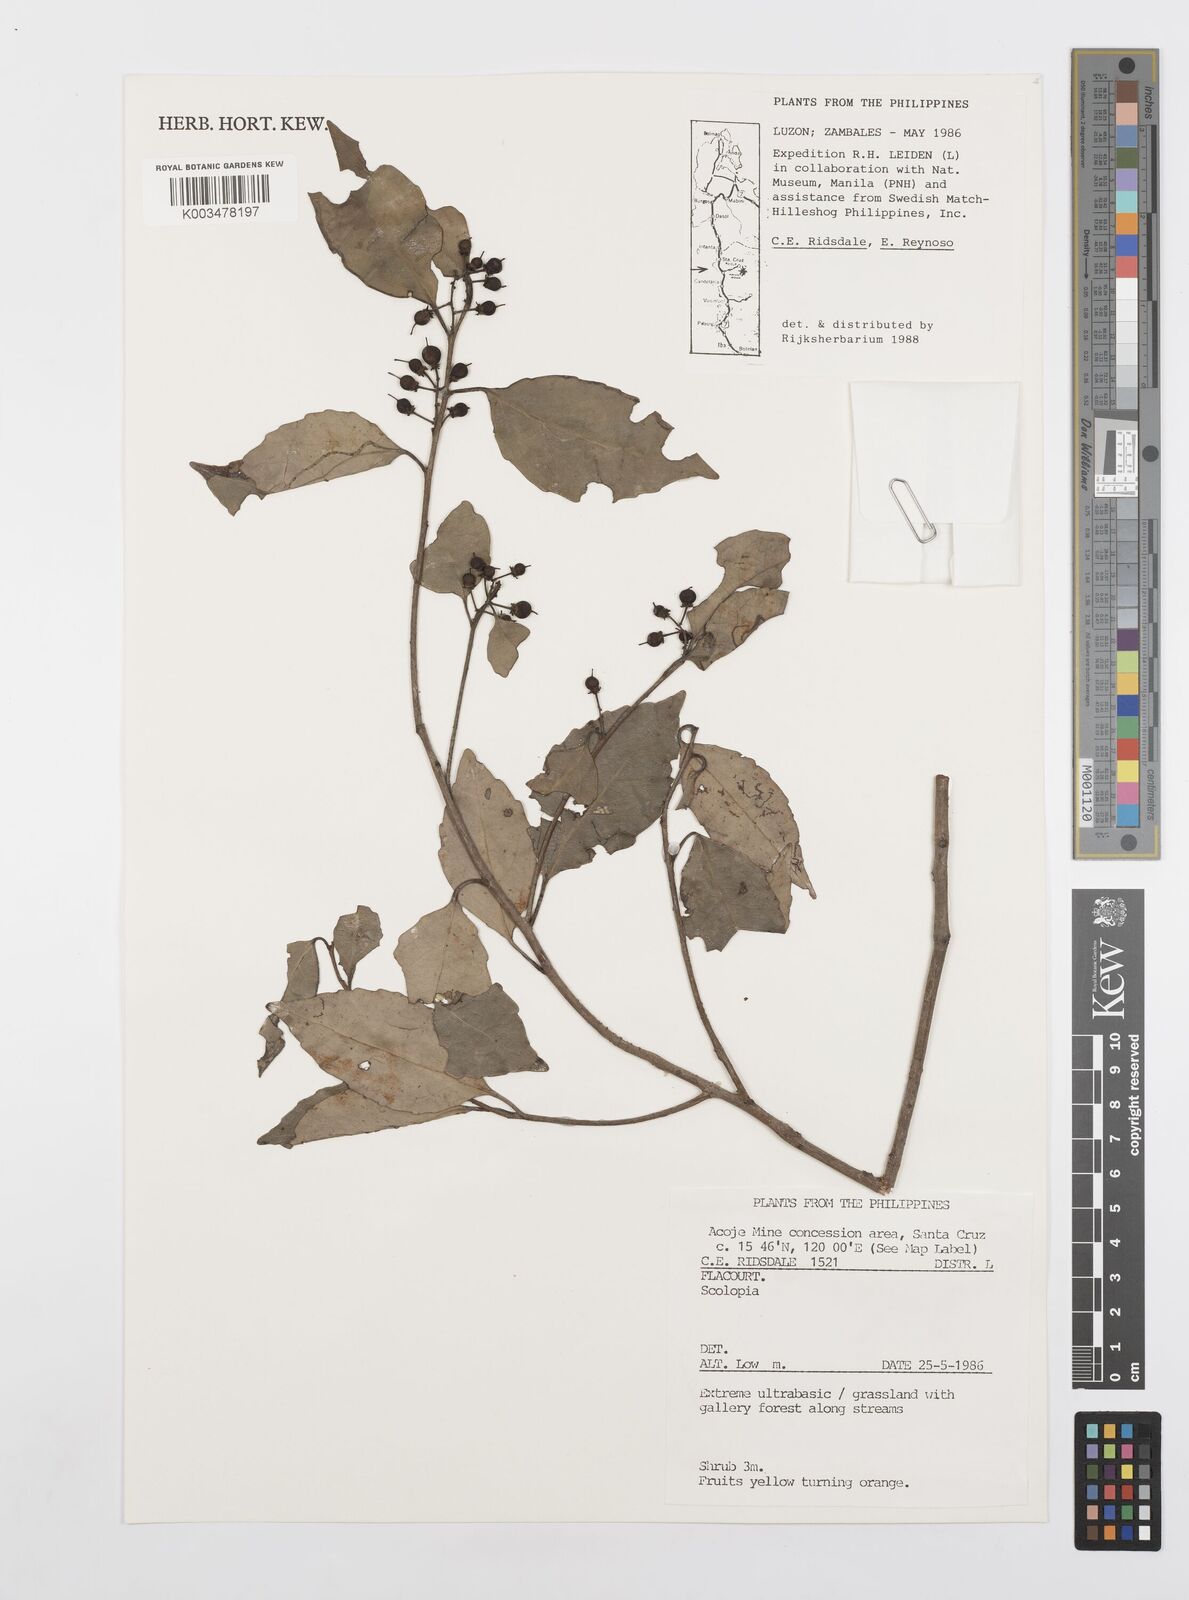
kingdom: Plantae
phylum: Tracheophyta
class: Magnoliopsida
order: Malpighiales
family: Salicaceae
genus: Scolopia
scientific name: Scolopia
